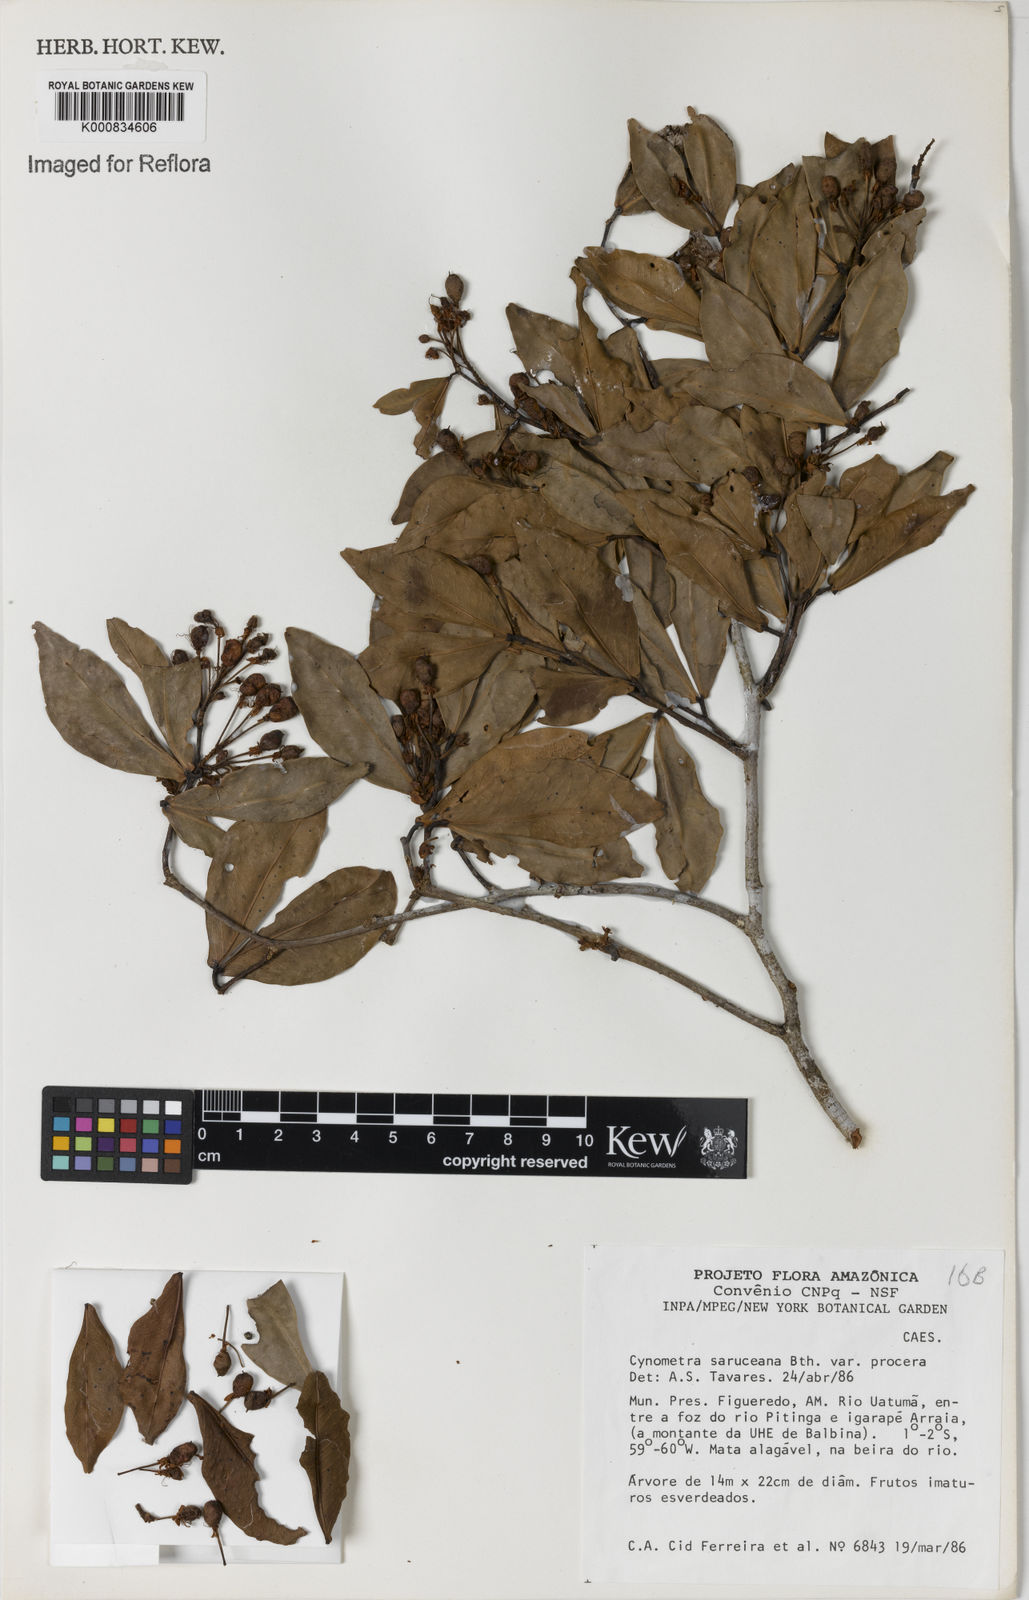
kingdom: Plantae
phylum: Tracheophyta
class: Magnoliopsida
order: Fabales
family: Fabaceae
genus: Cynometra
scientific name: Cynometra phaselocarpa
